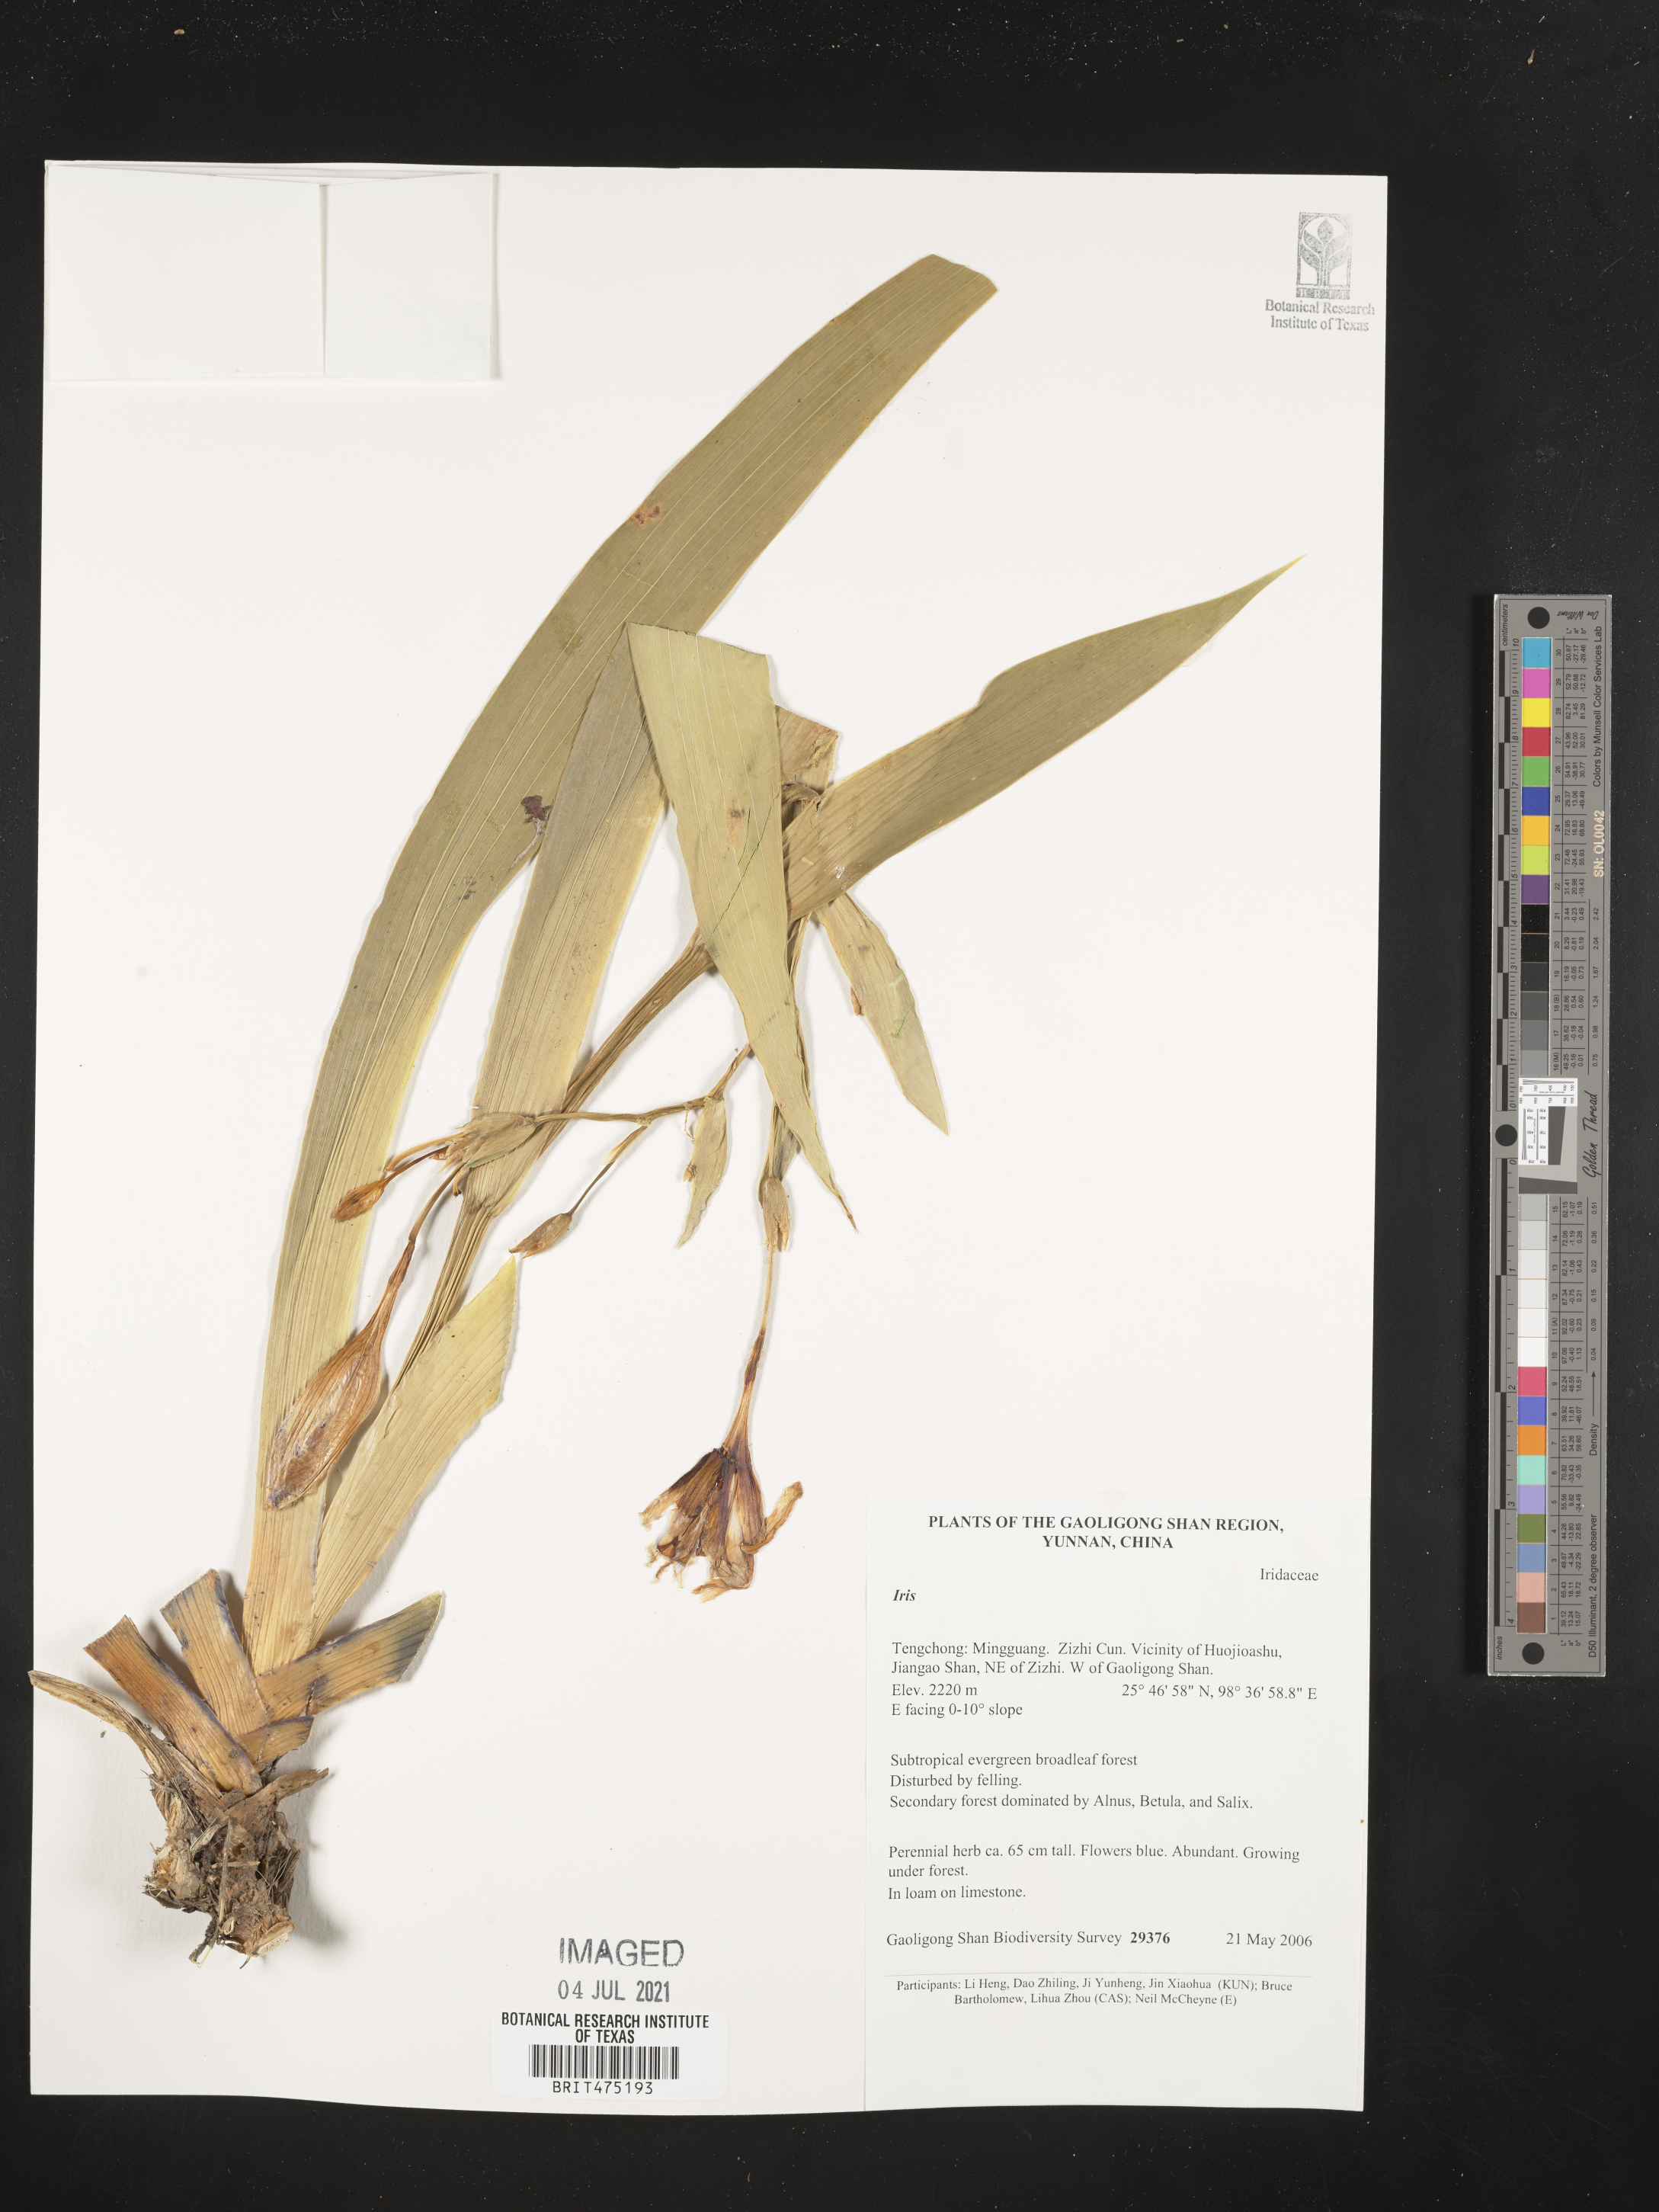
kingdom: Plantae
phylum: Tracheophyta
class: Liliopsida
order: Asparagales
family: Iridaceae
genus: Iris
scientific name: Iris
